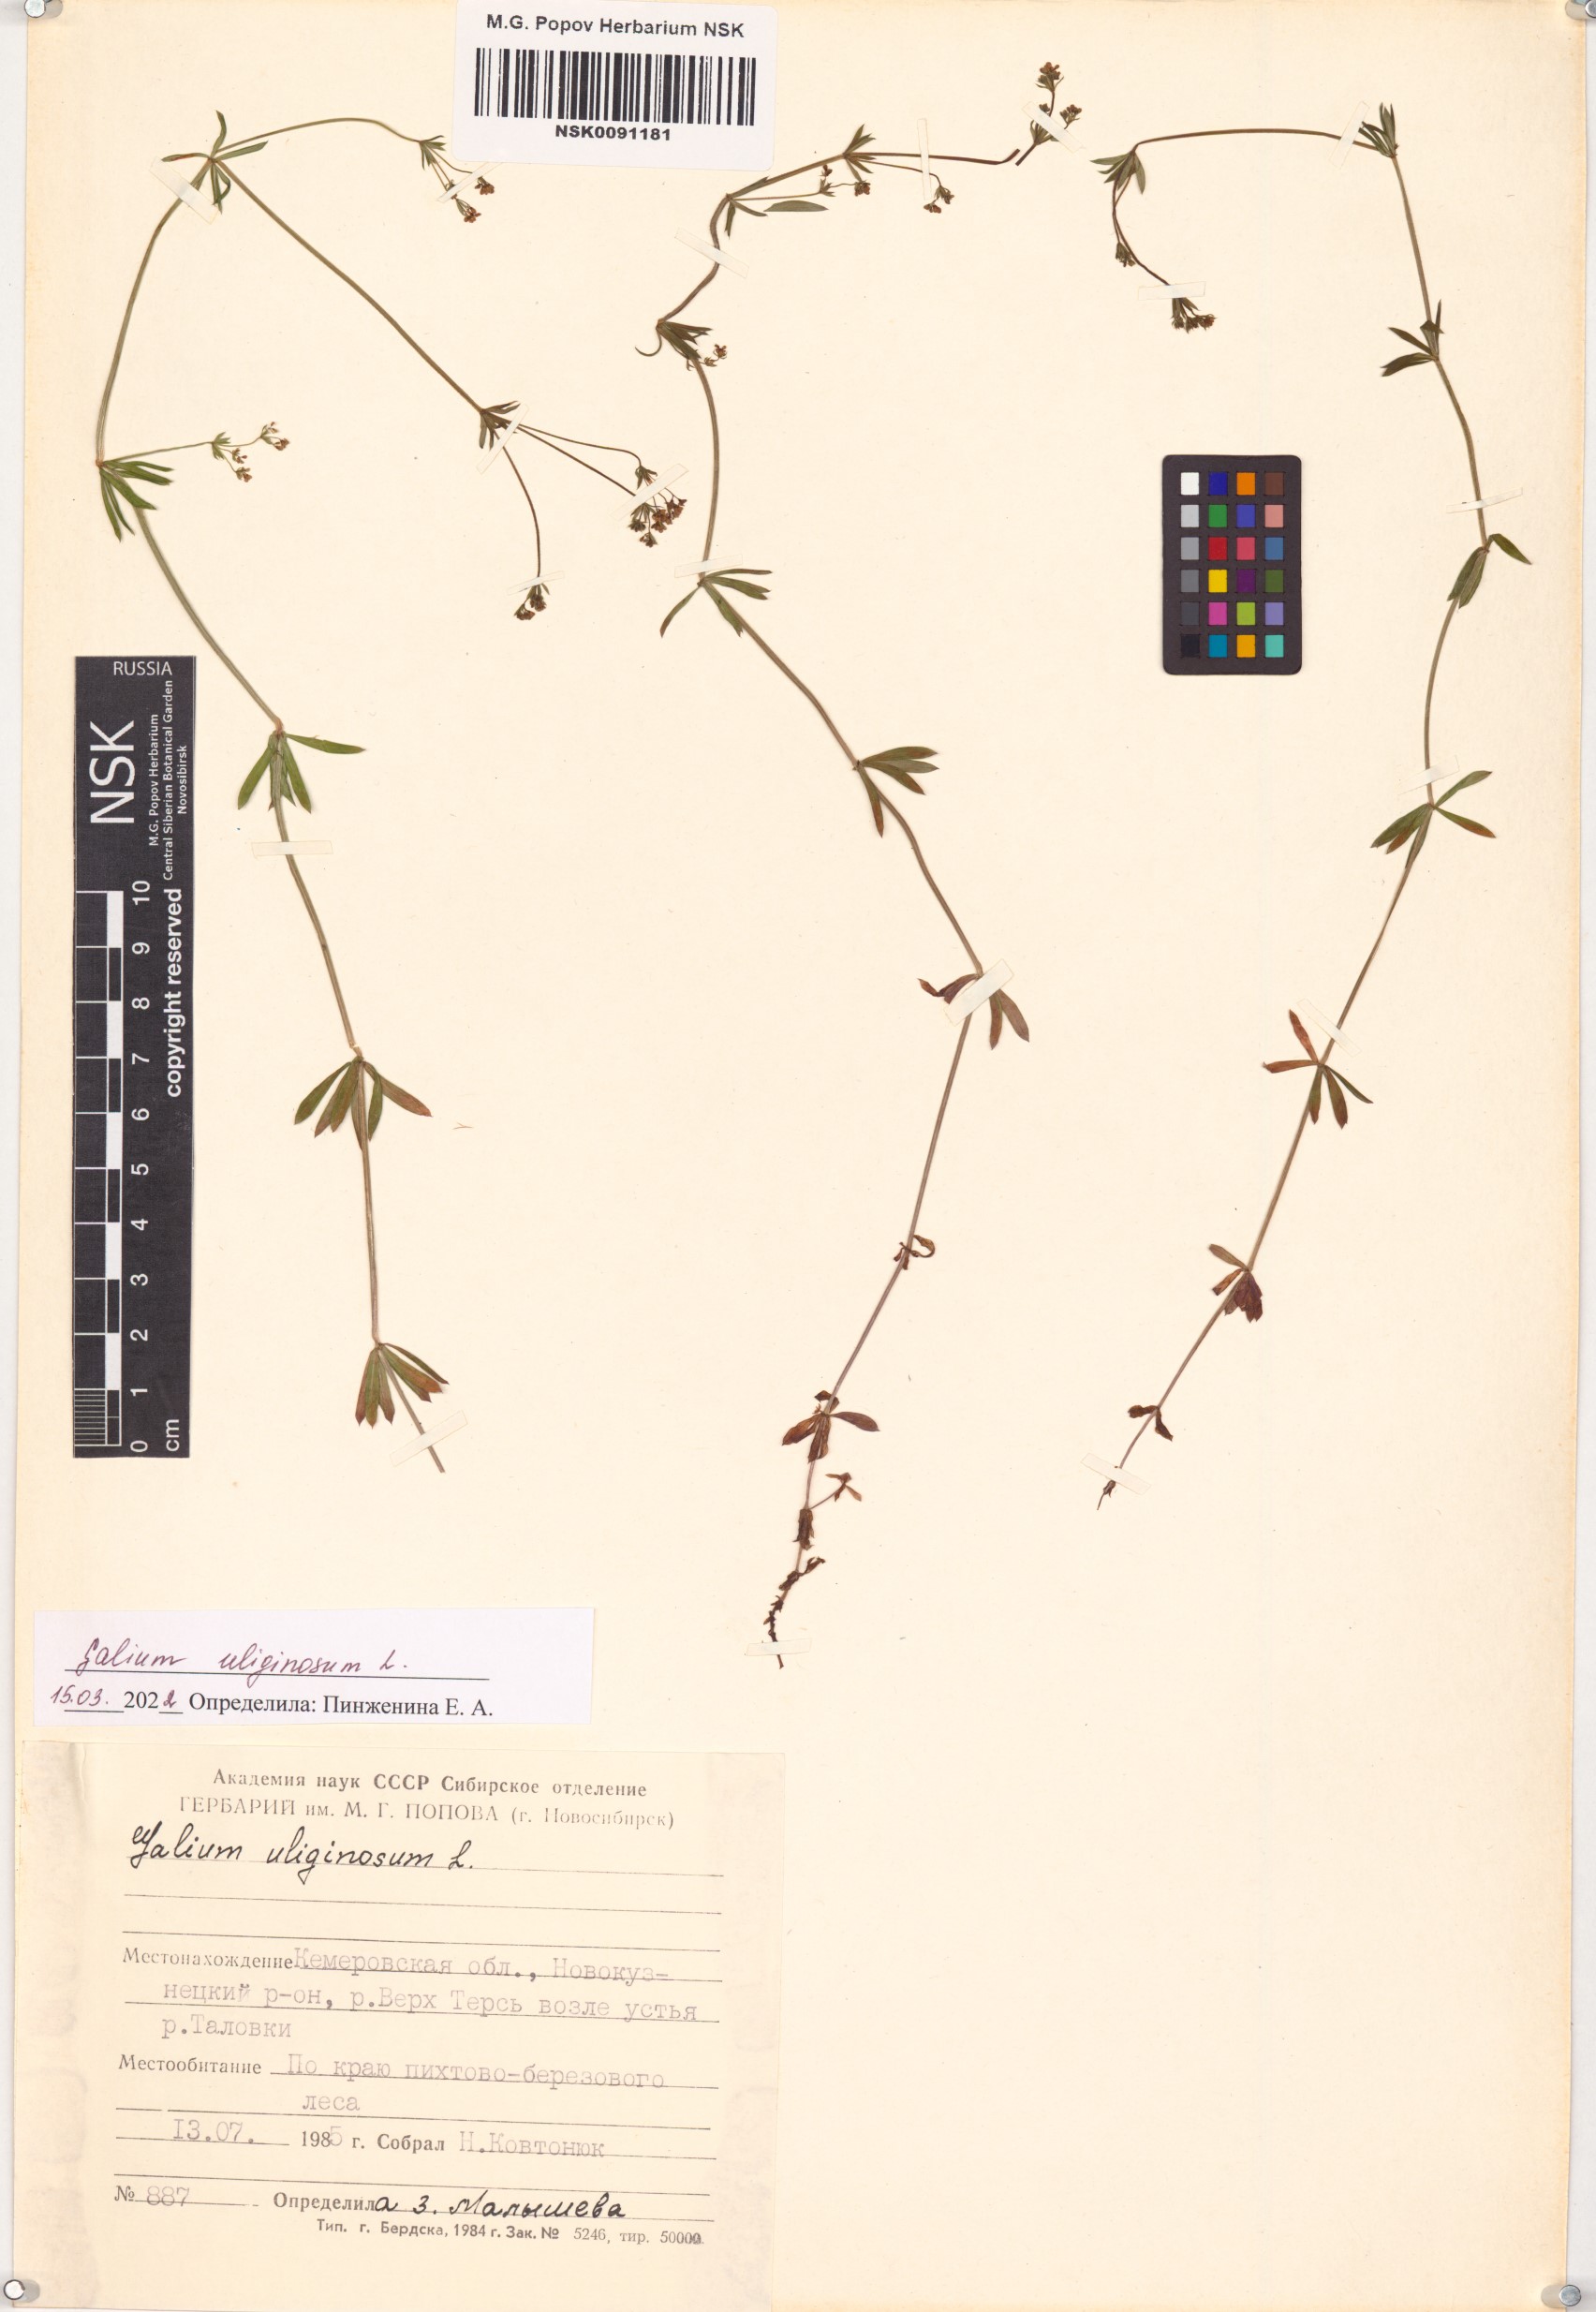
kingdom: Plantae
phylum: Tracheophyta
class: Magnoliopsida
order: Gentianales
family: Rubiaceae
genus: Galium
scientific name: Galium uliginosum
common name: Fen bedstraw
